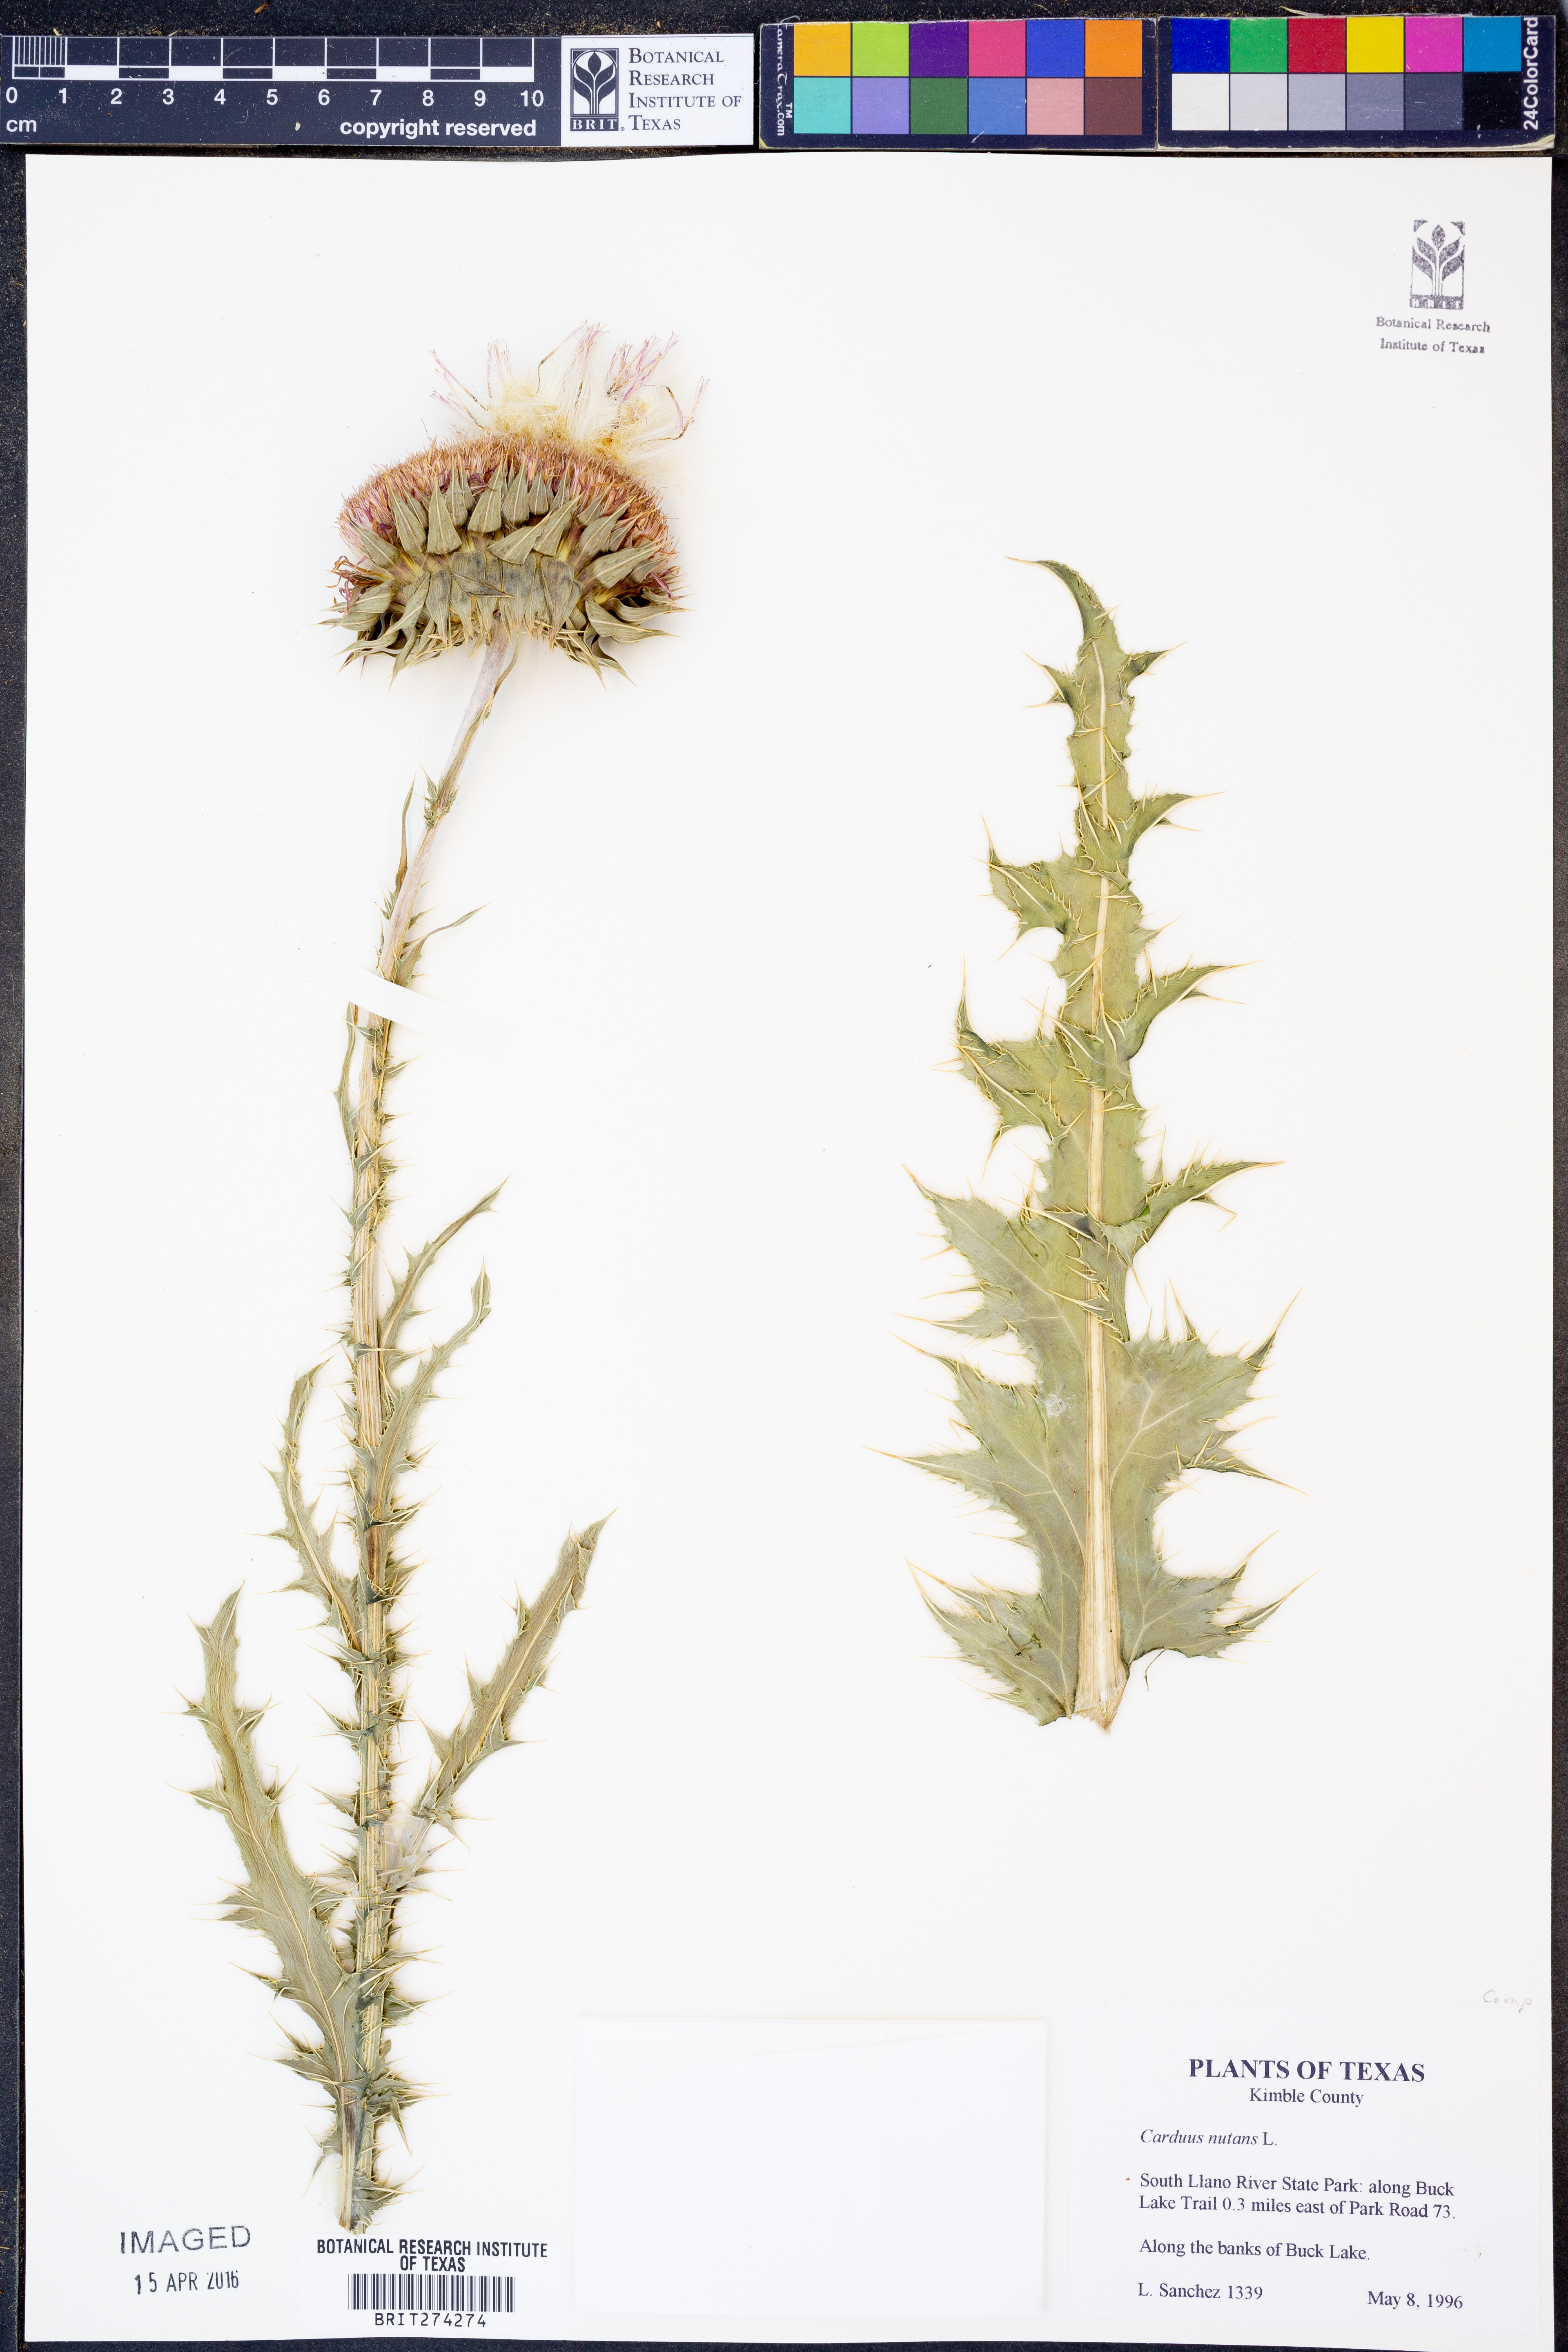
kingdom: Plantae
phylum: Tracheophyta
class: Magnoliopsida
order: Asterales
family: Asteraceae
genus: Carduus
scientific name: Carduus nutans
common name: Musk thistle
